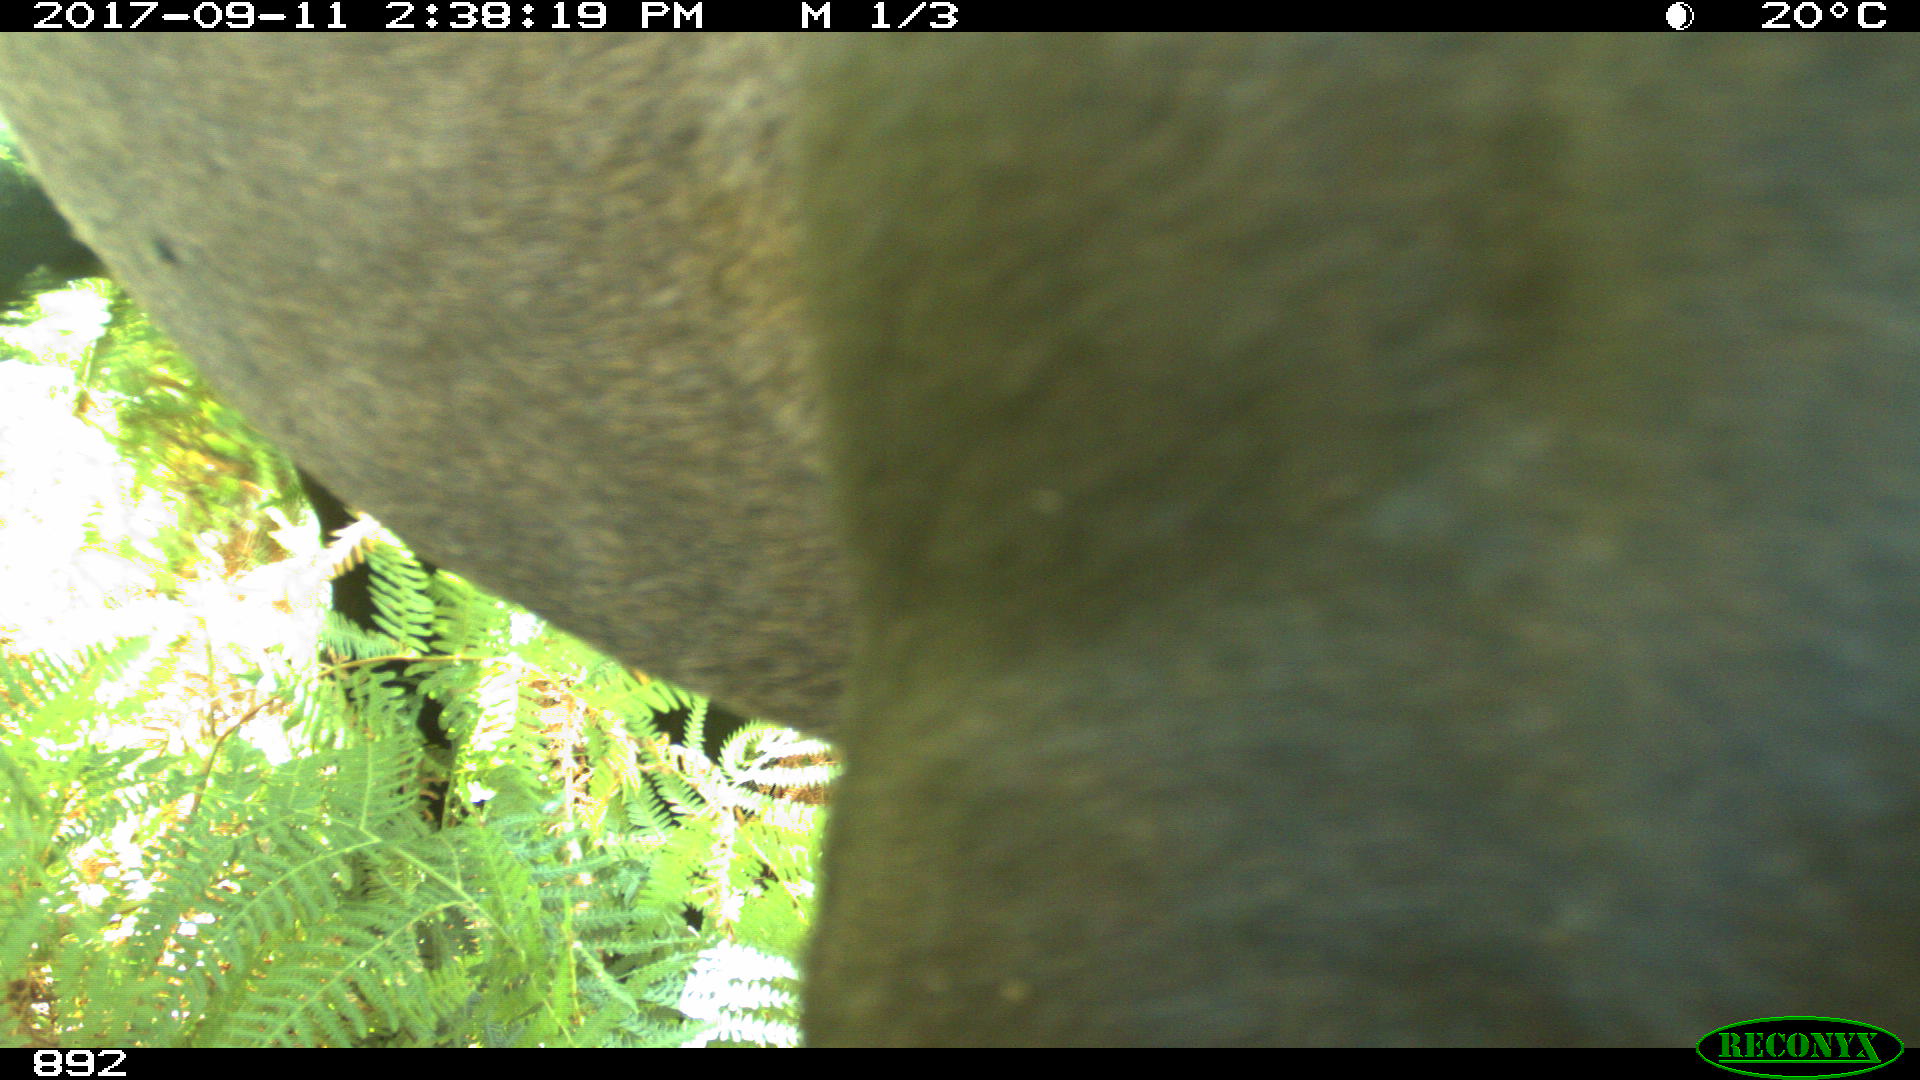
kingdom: Animalia
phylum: Chordata
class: Mammalia
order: Perissodactyla
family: Equidae
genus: Equus
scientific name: Equus caballus
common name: Horse
